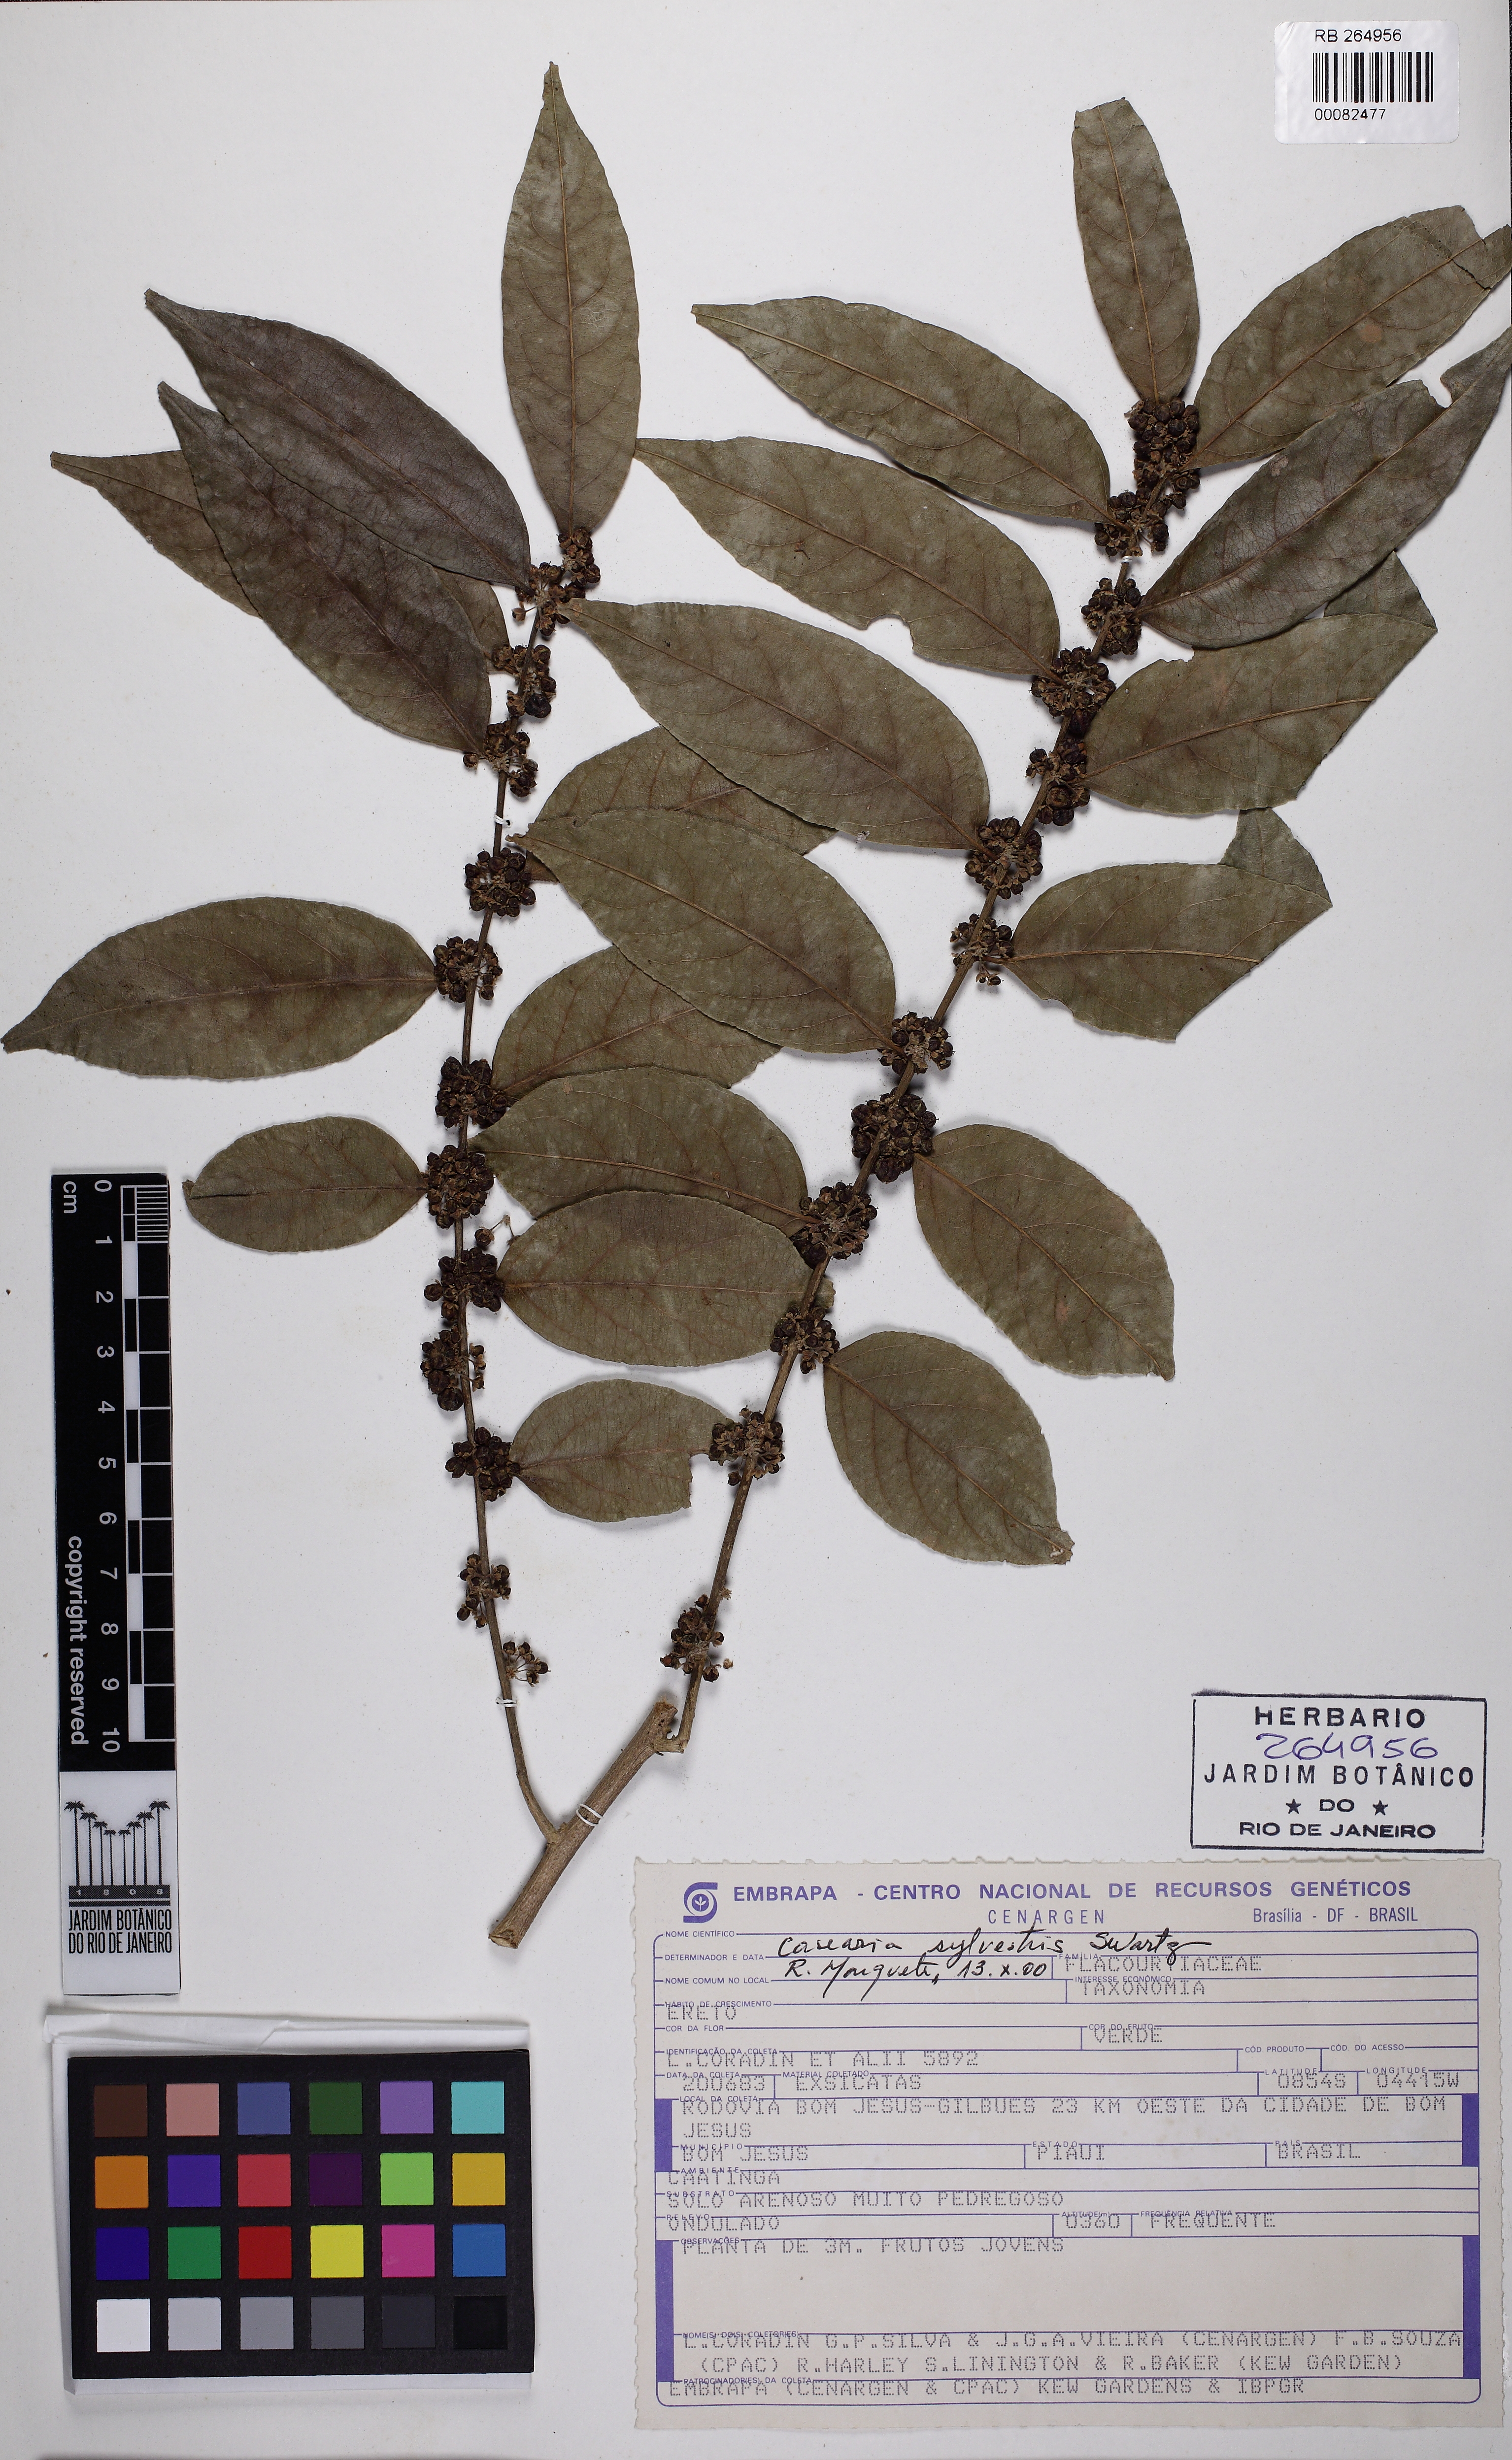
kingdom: Plantae
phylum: Tracheophyta
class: Magnoliopsida
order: Malpighiales
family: Salicaceae
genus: Casearia
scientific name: Casearia sylvestris
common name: Wild sage
